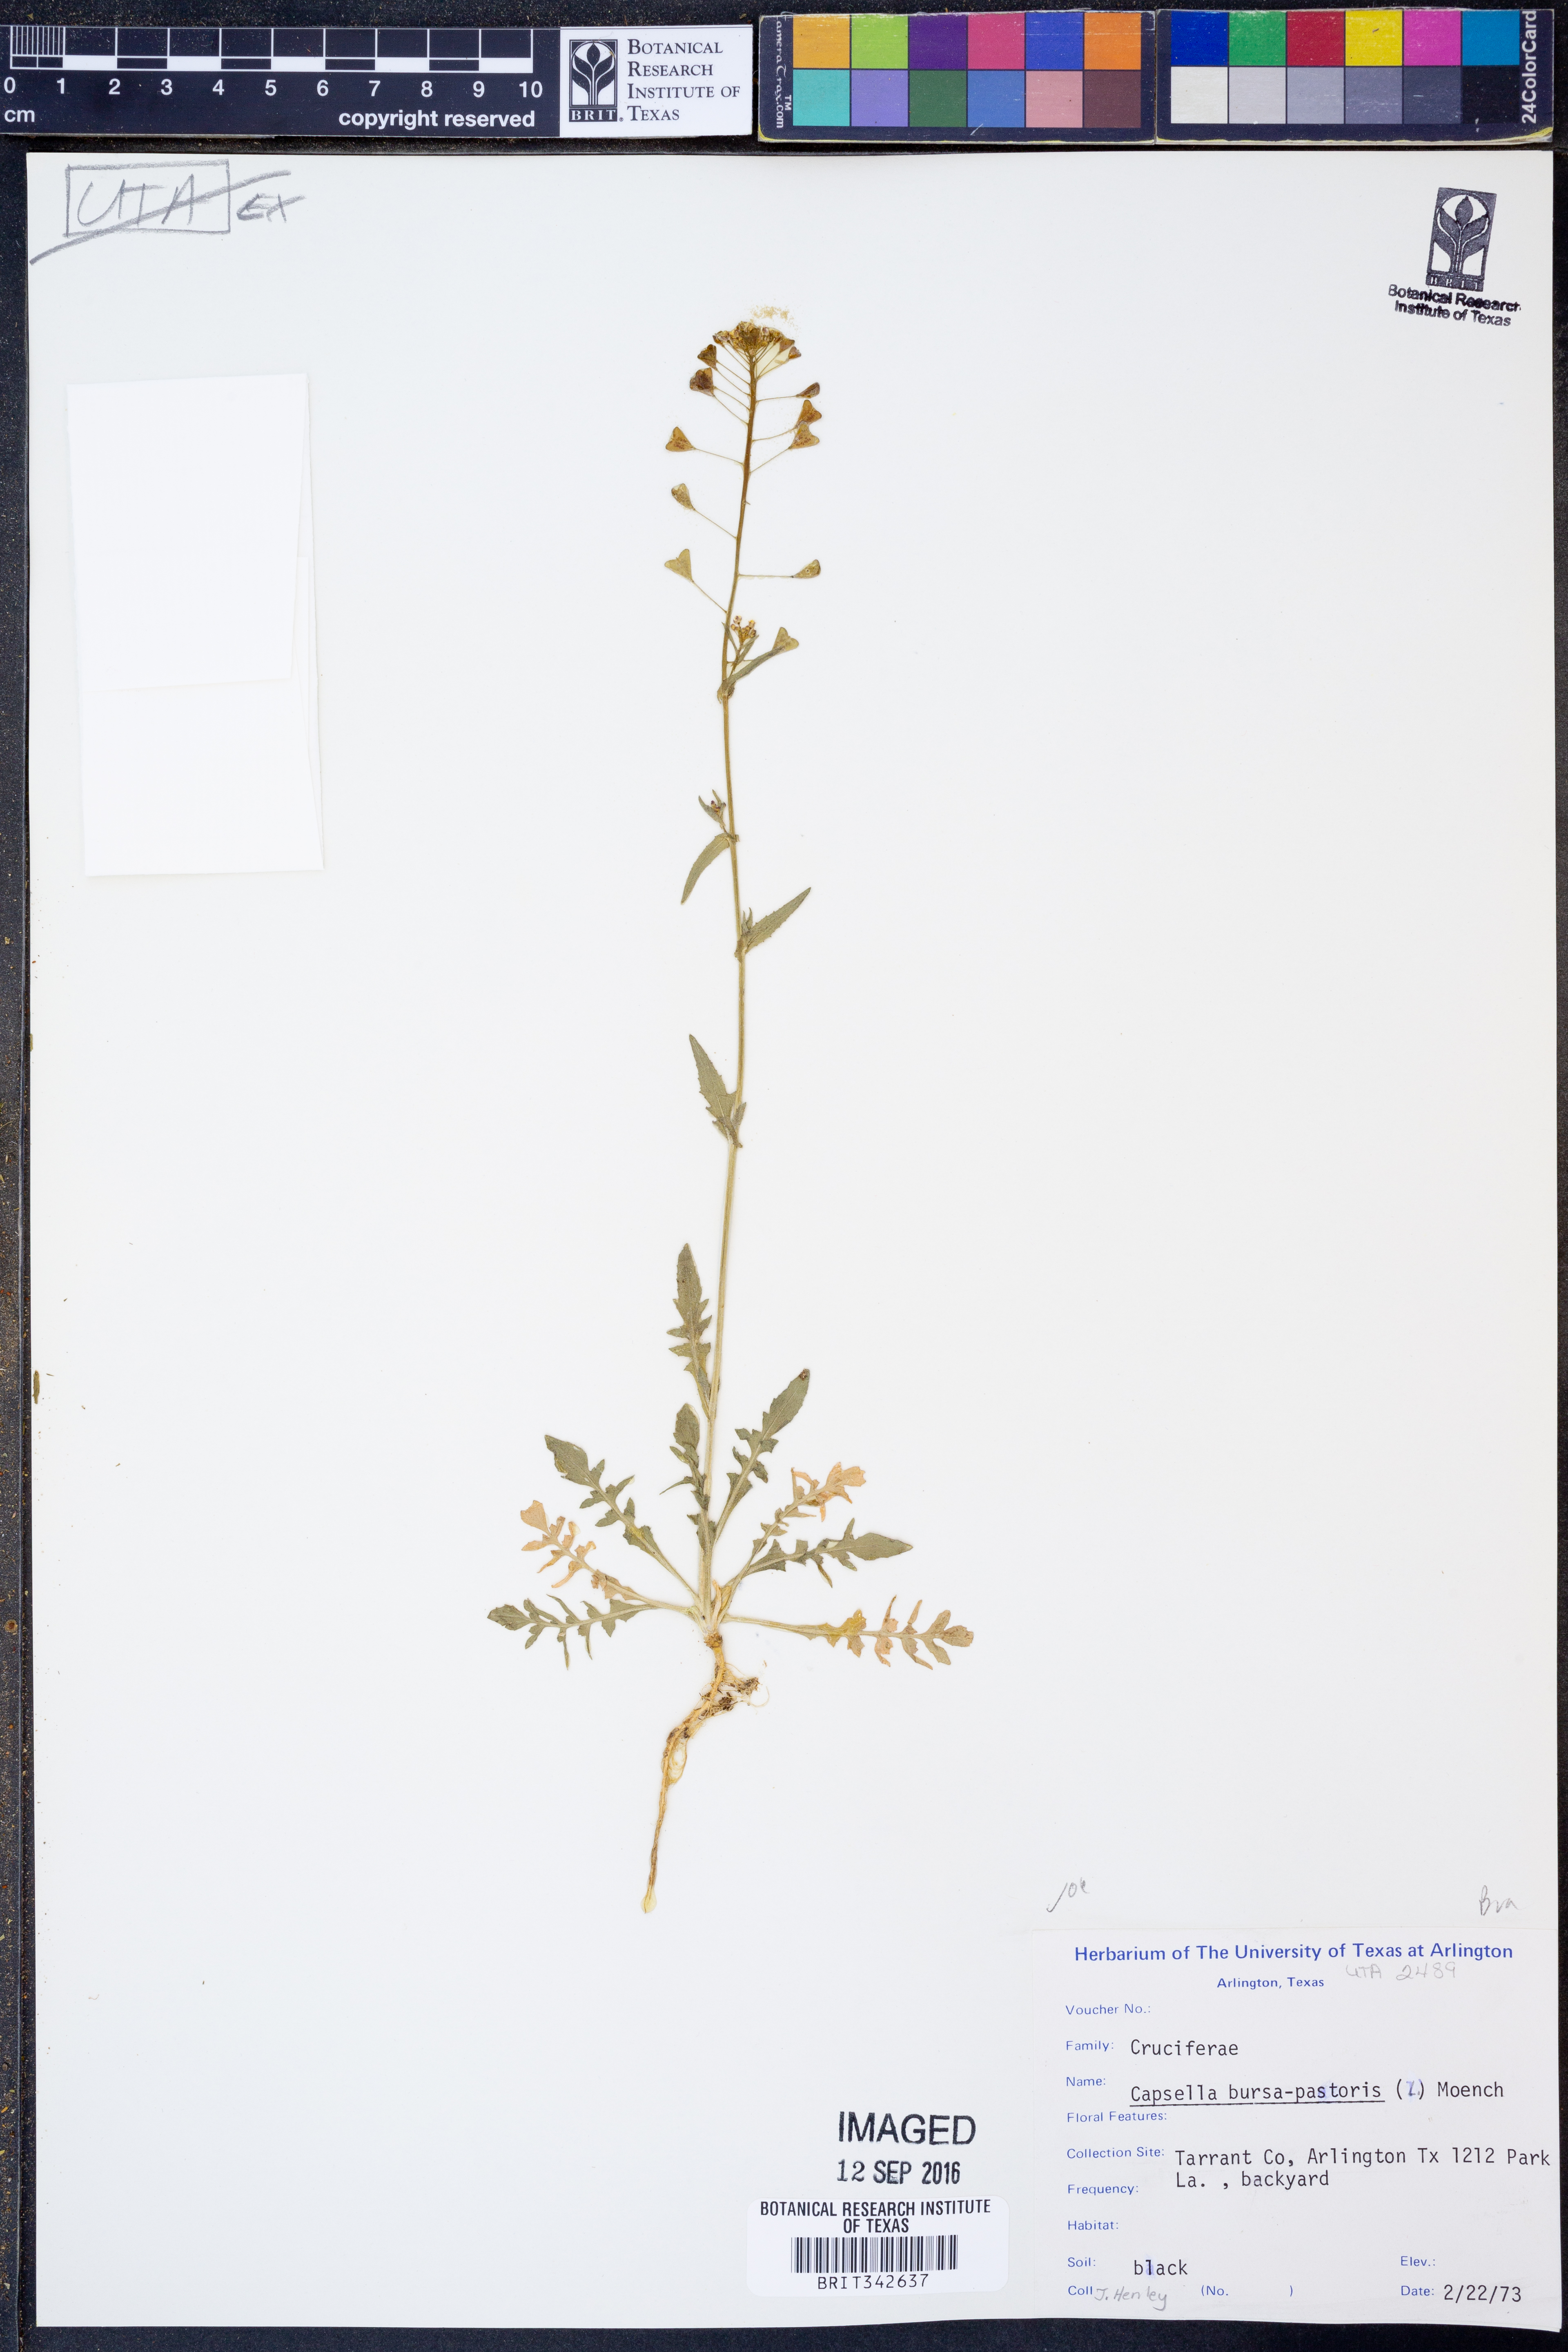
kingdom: Plantae
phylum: Tracheophyta
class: Magnoliopsida
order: Brassicales
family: Brassicaceae
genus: Capsella
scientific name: Capsella bursa-pastoris
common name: Shepherd's purse
